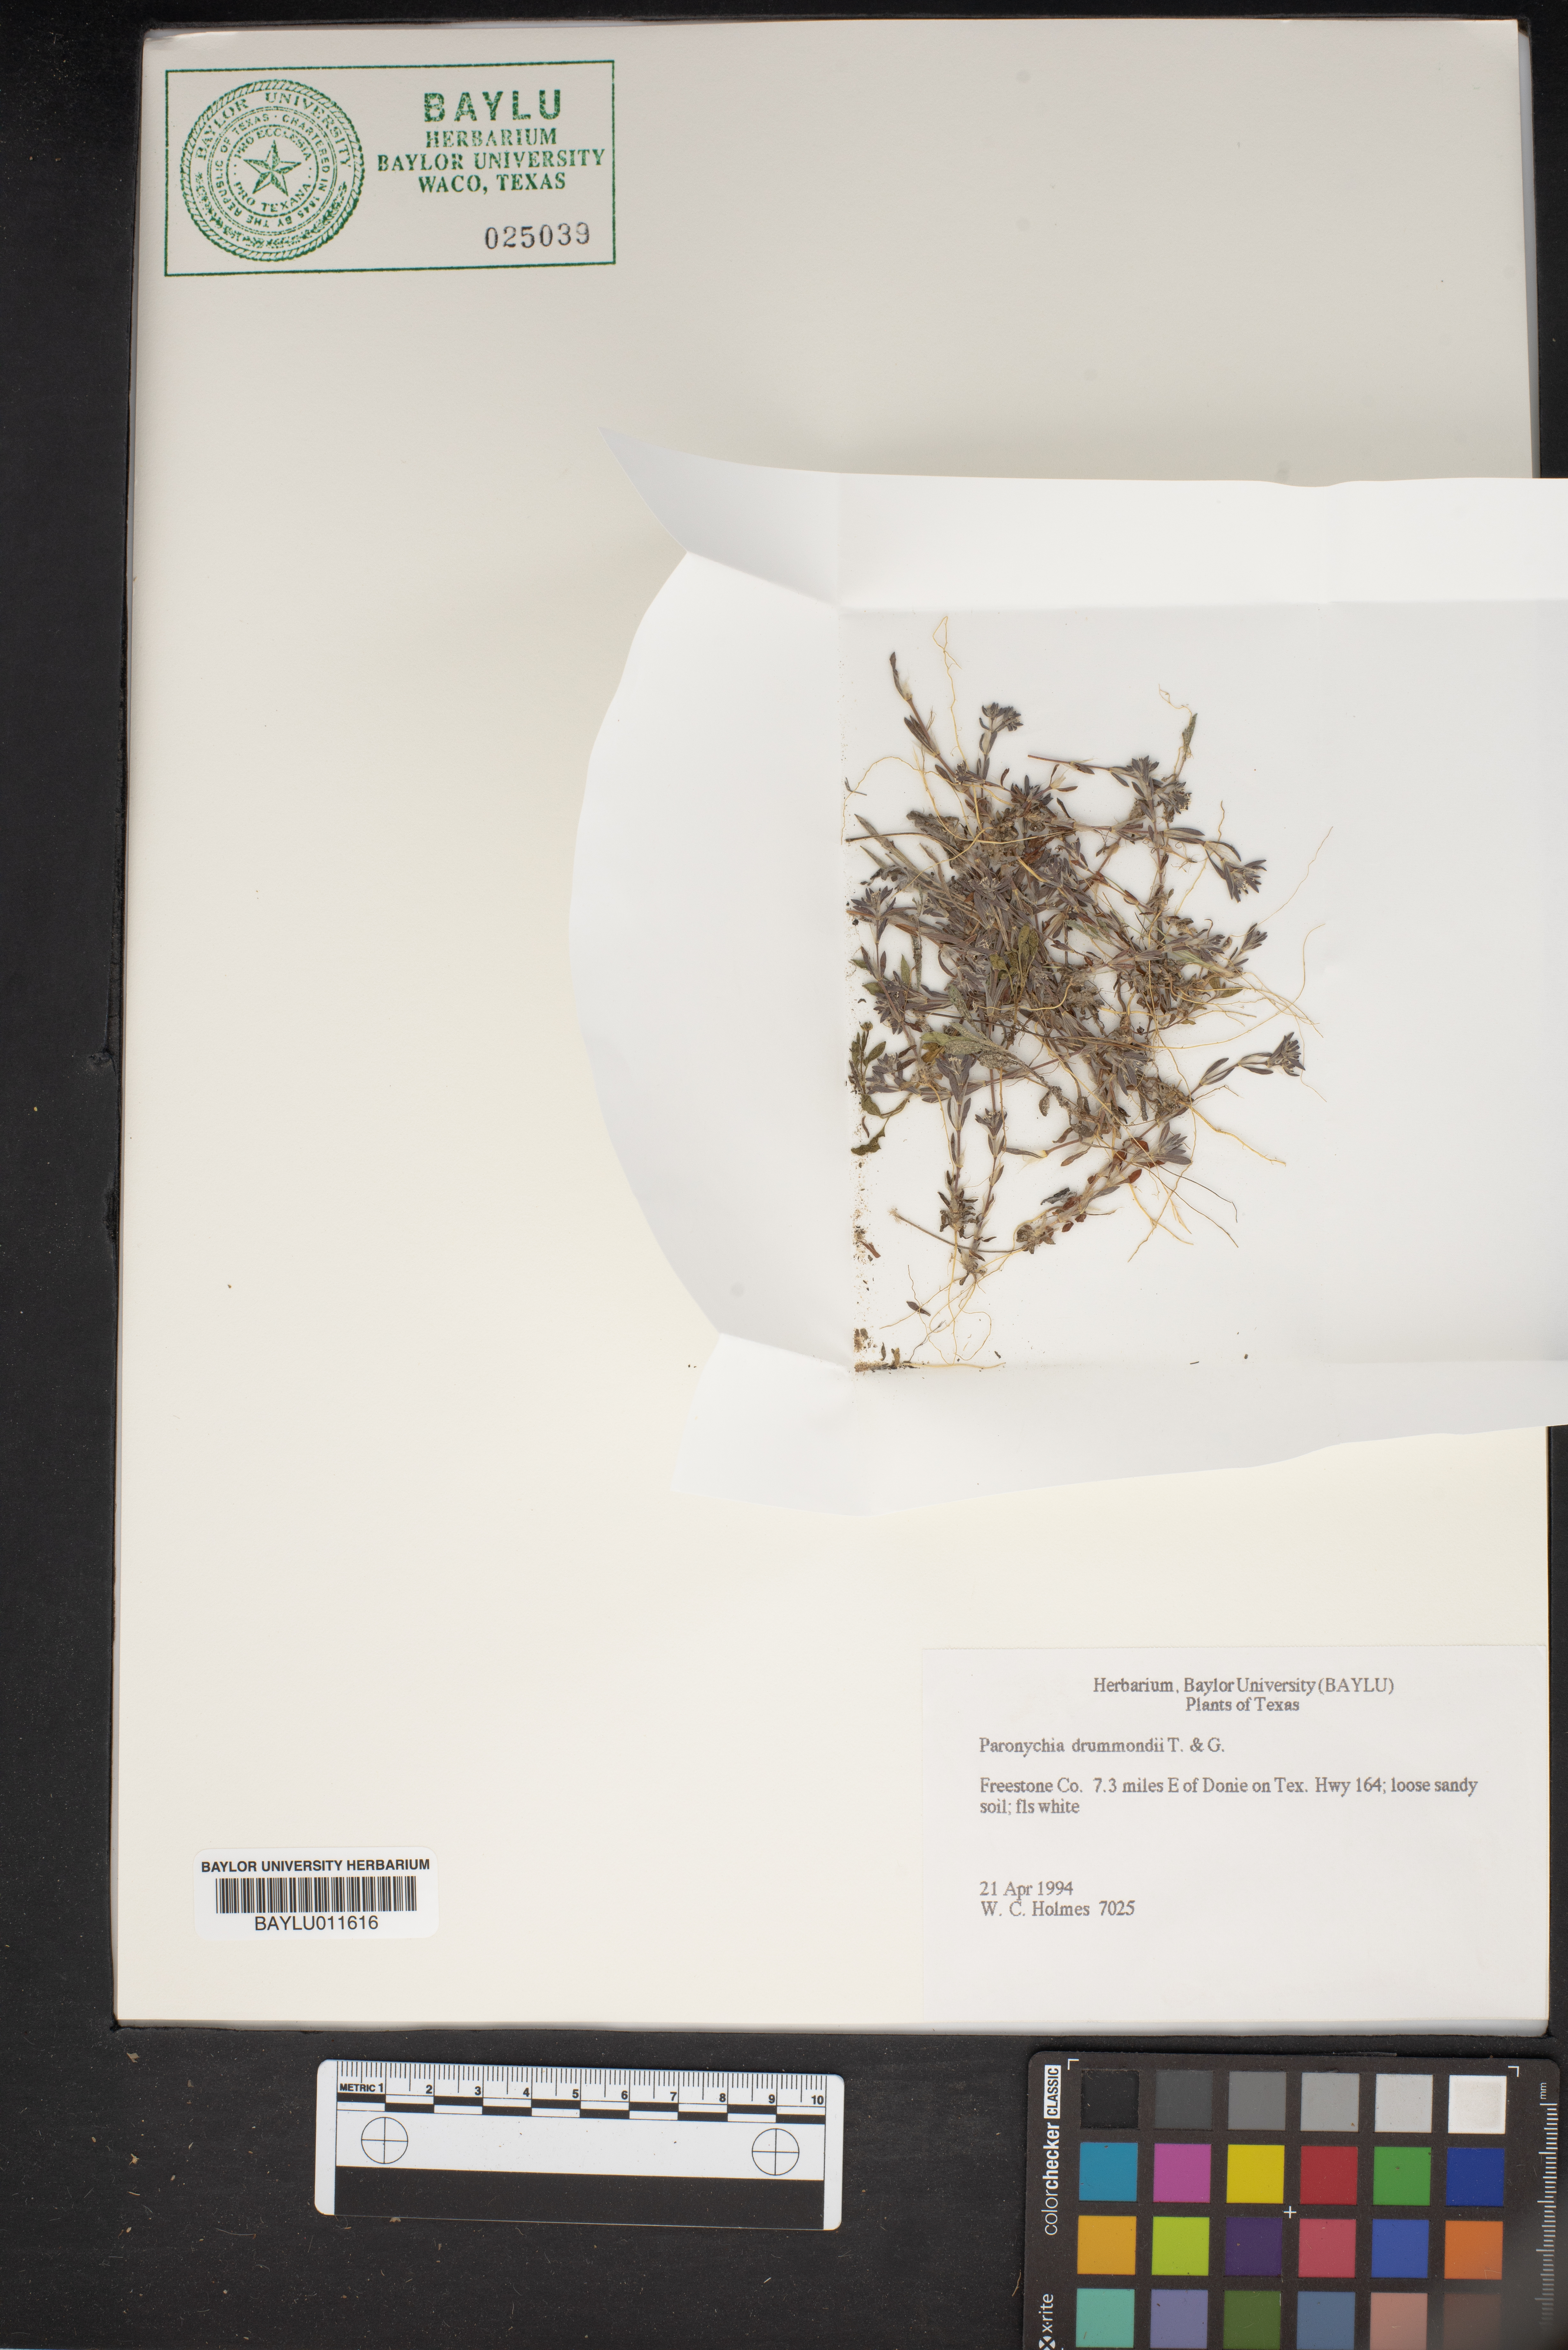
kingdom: Plantae
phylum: Tracheophyta
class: Magnoliopsida
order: Caryophyllales
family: Caryophyllaceae
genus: Paronychia
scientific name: Paronychia drummondii
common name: Drummond's nailwort
